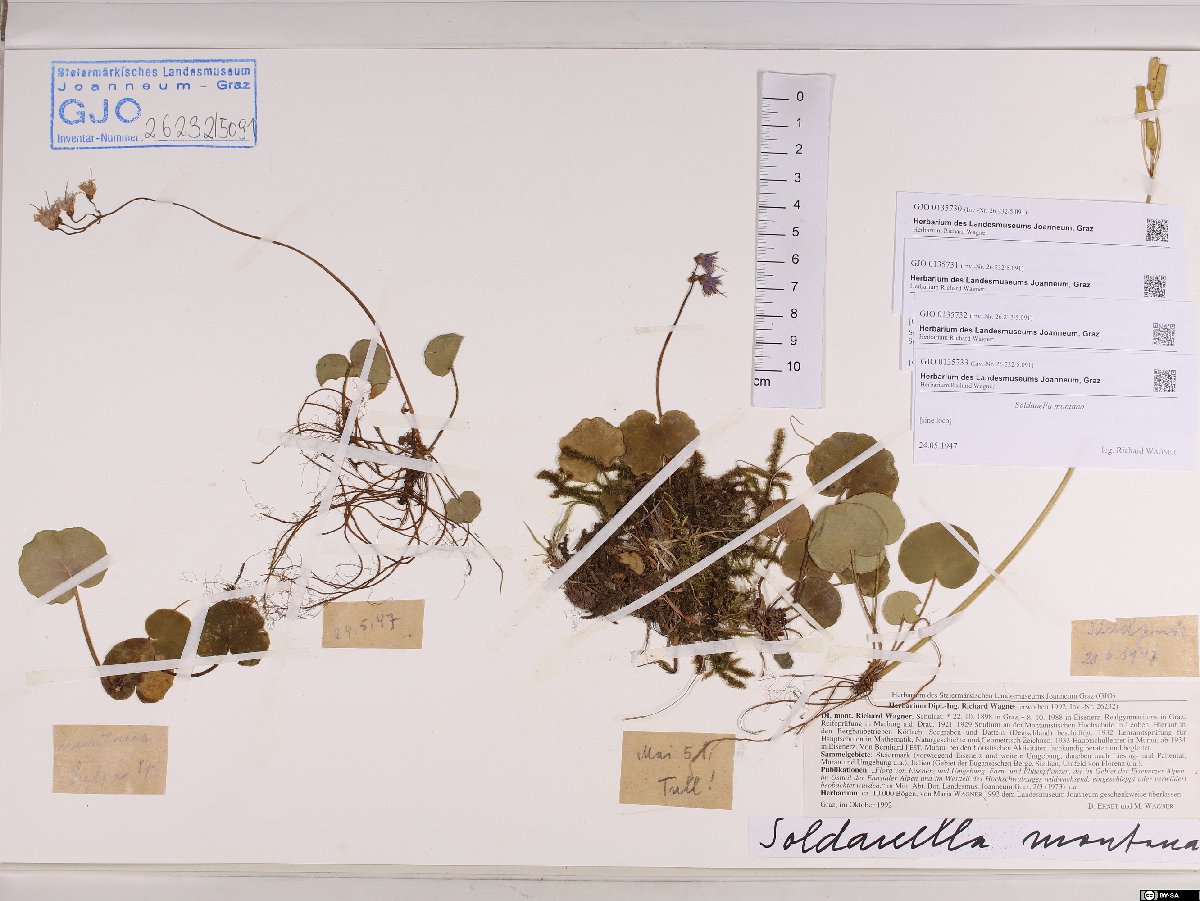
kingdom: Plantae
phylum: Tracheophyta
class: Magnoliopsida
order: Ericales
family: Primulaceae
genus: Soldanella
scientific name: Soldanella montana
